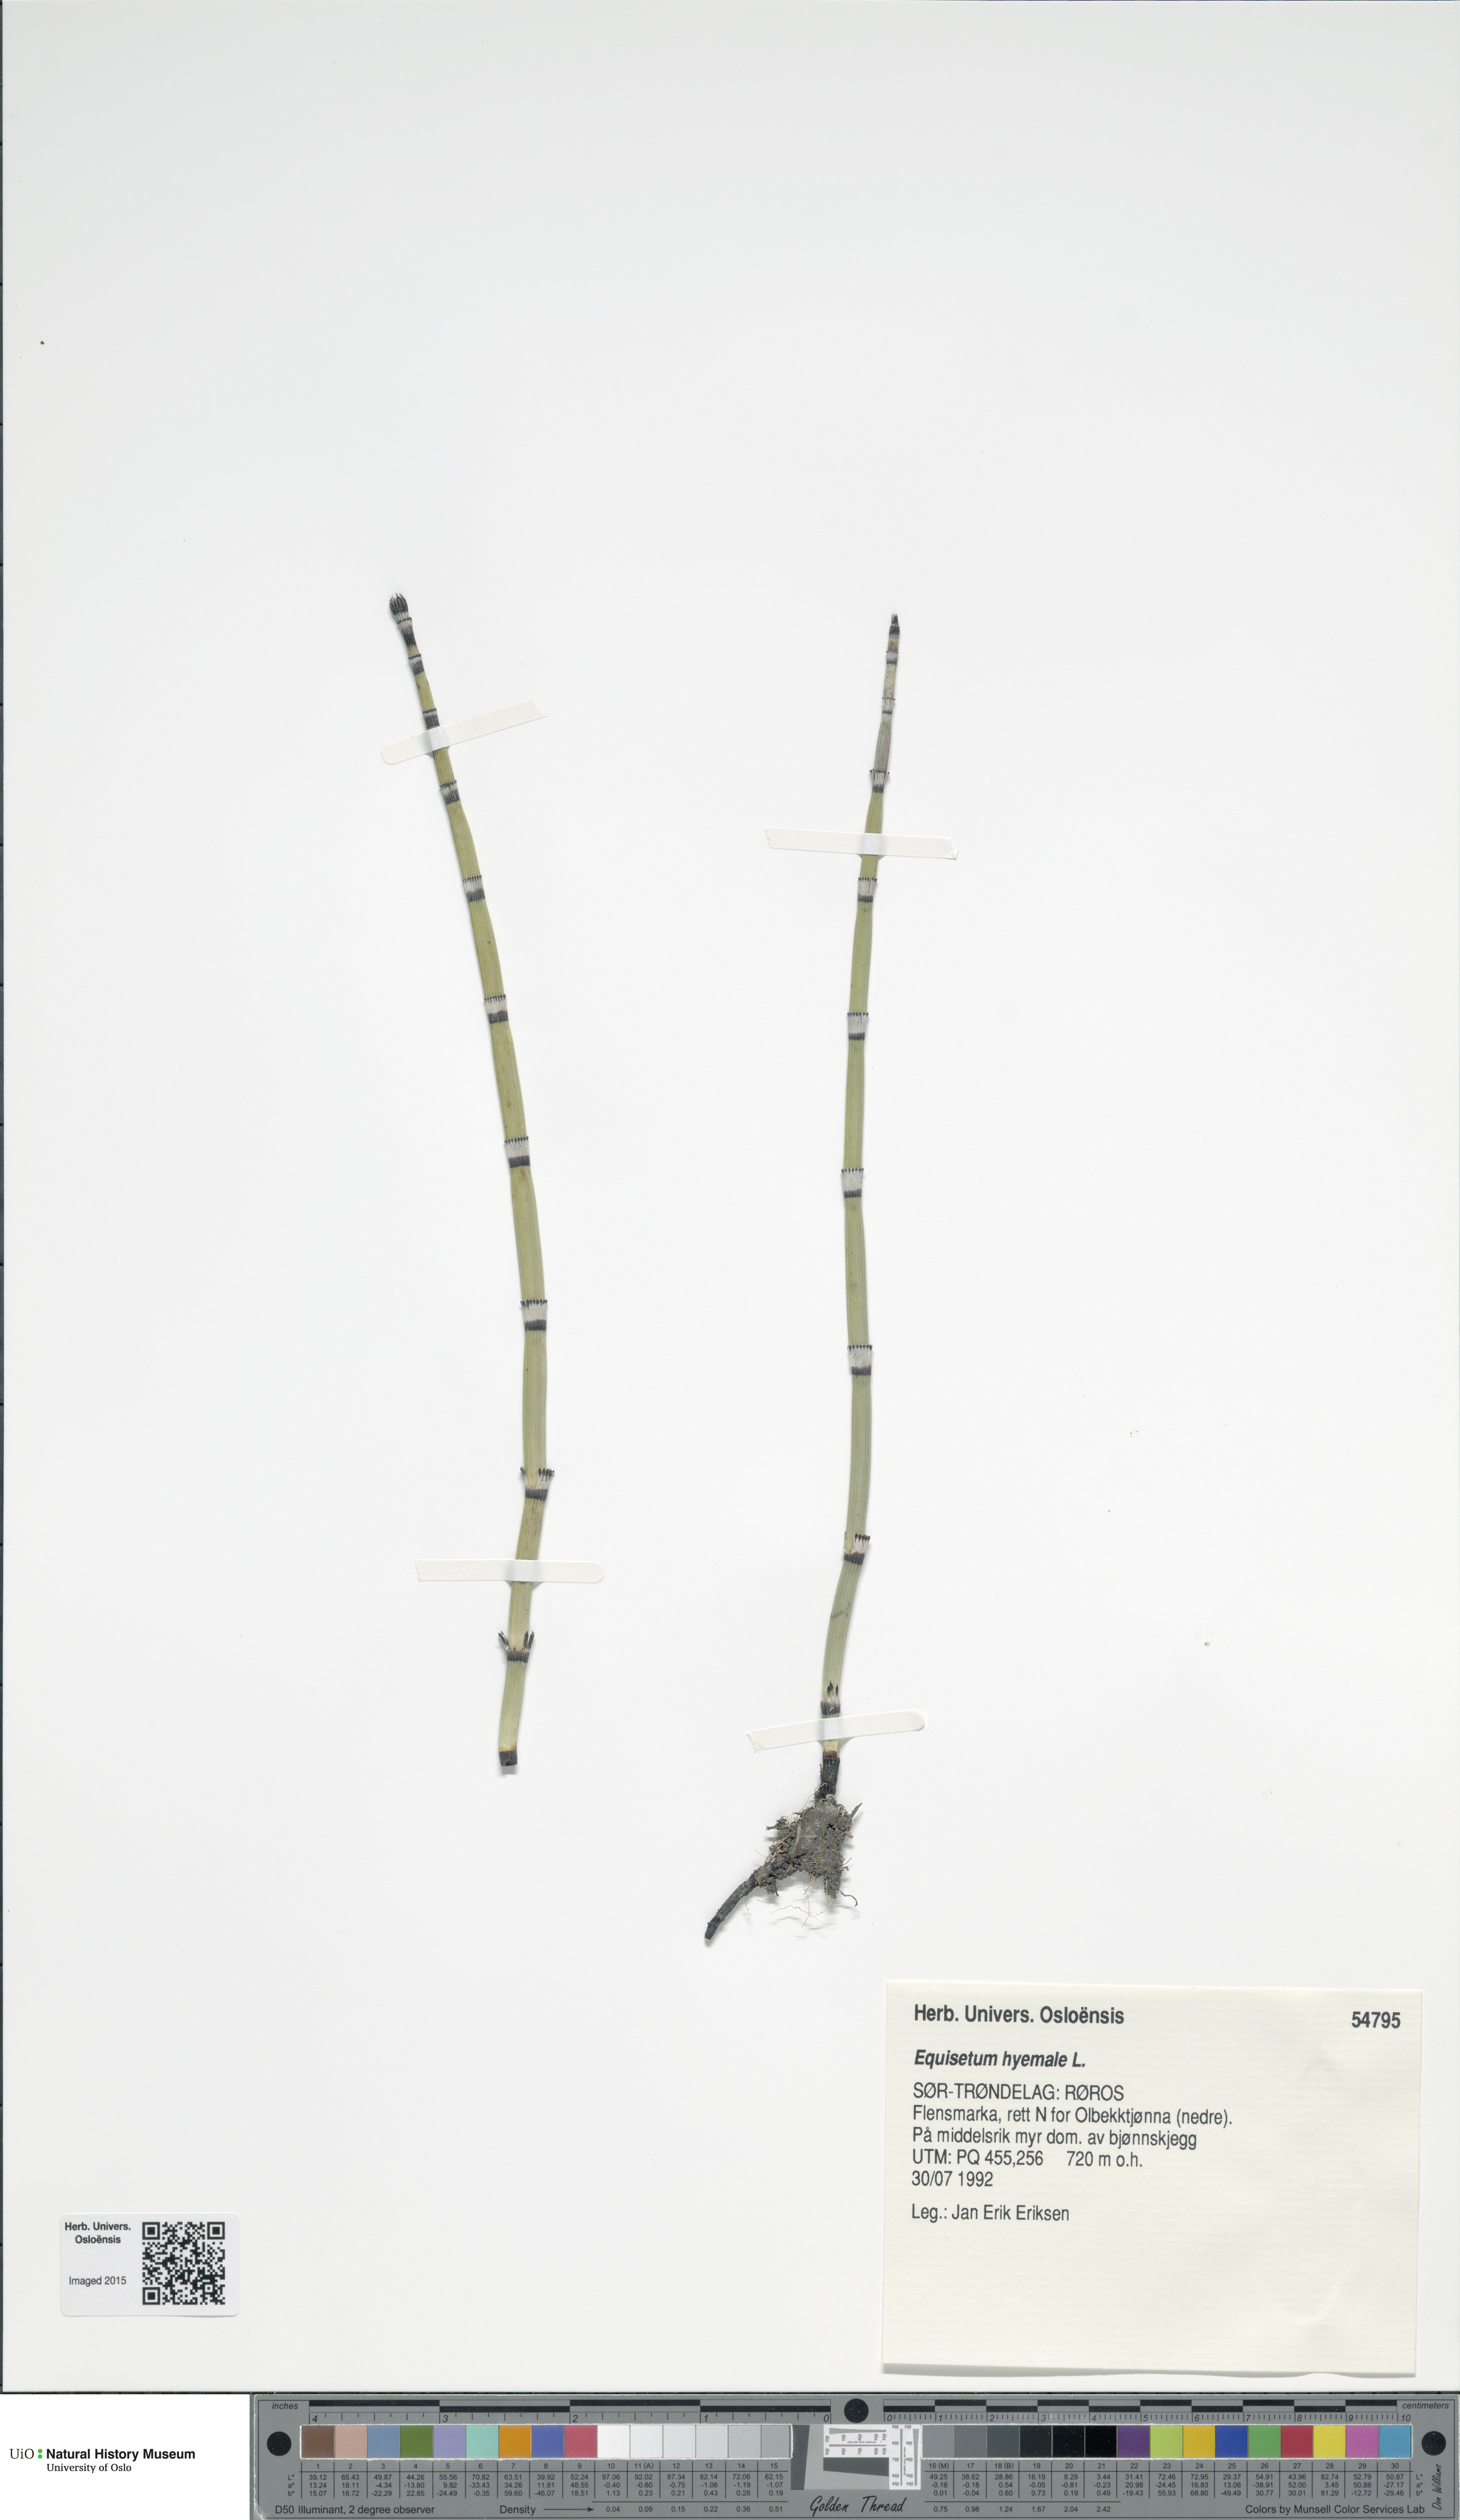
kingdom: Plantae
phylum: Tracheophyta
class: Polypodiopsida
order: Equisetales
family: Equisetaceae
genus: Equisetum
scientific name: Equisetum hyemale
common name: Rough horsetail
